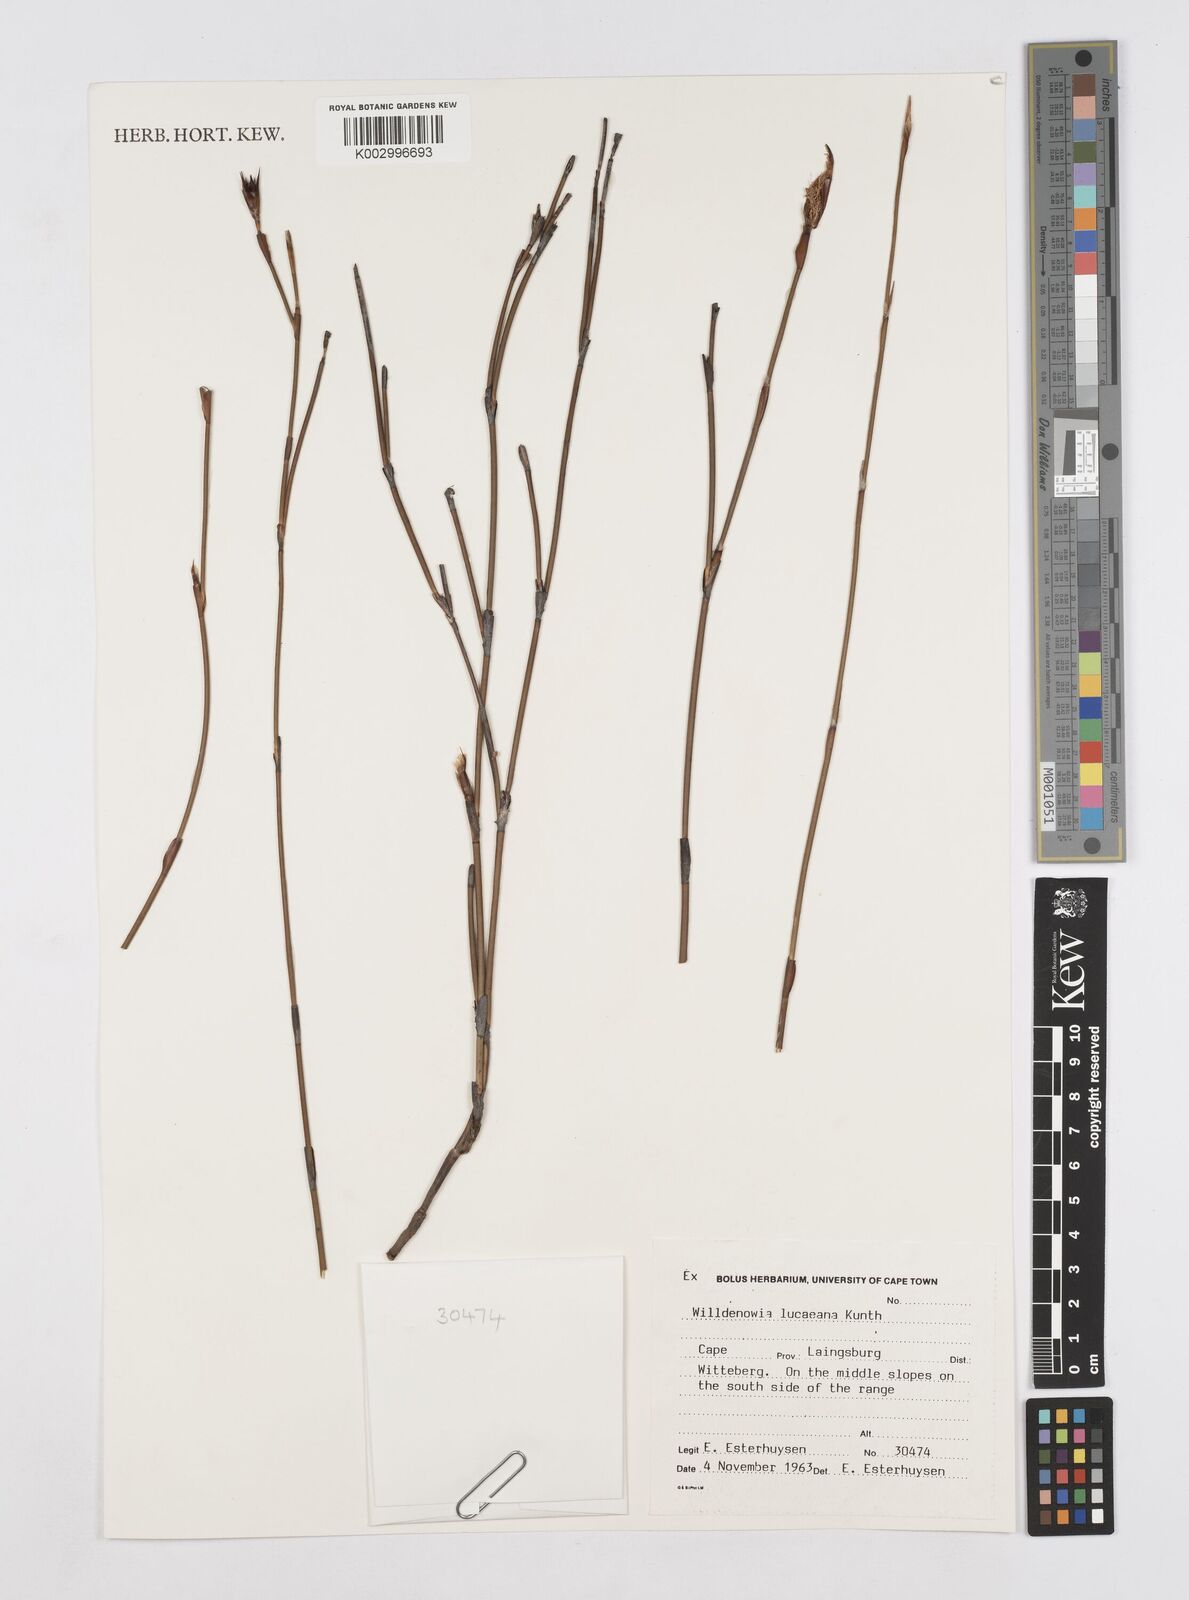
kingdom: Plantae
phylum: Tracheophyta
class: Liliopsida
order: Poales
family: Restionaceae
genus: Willdenowia
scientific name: Willdenowia glomerata
